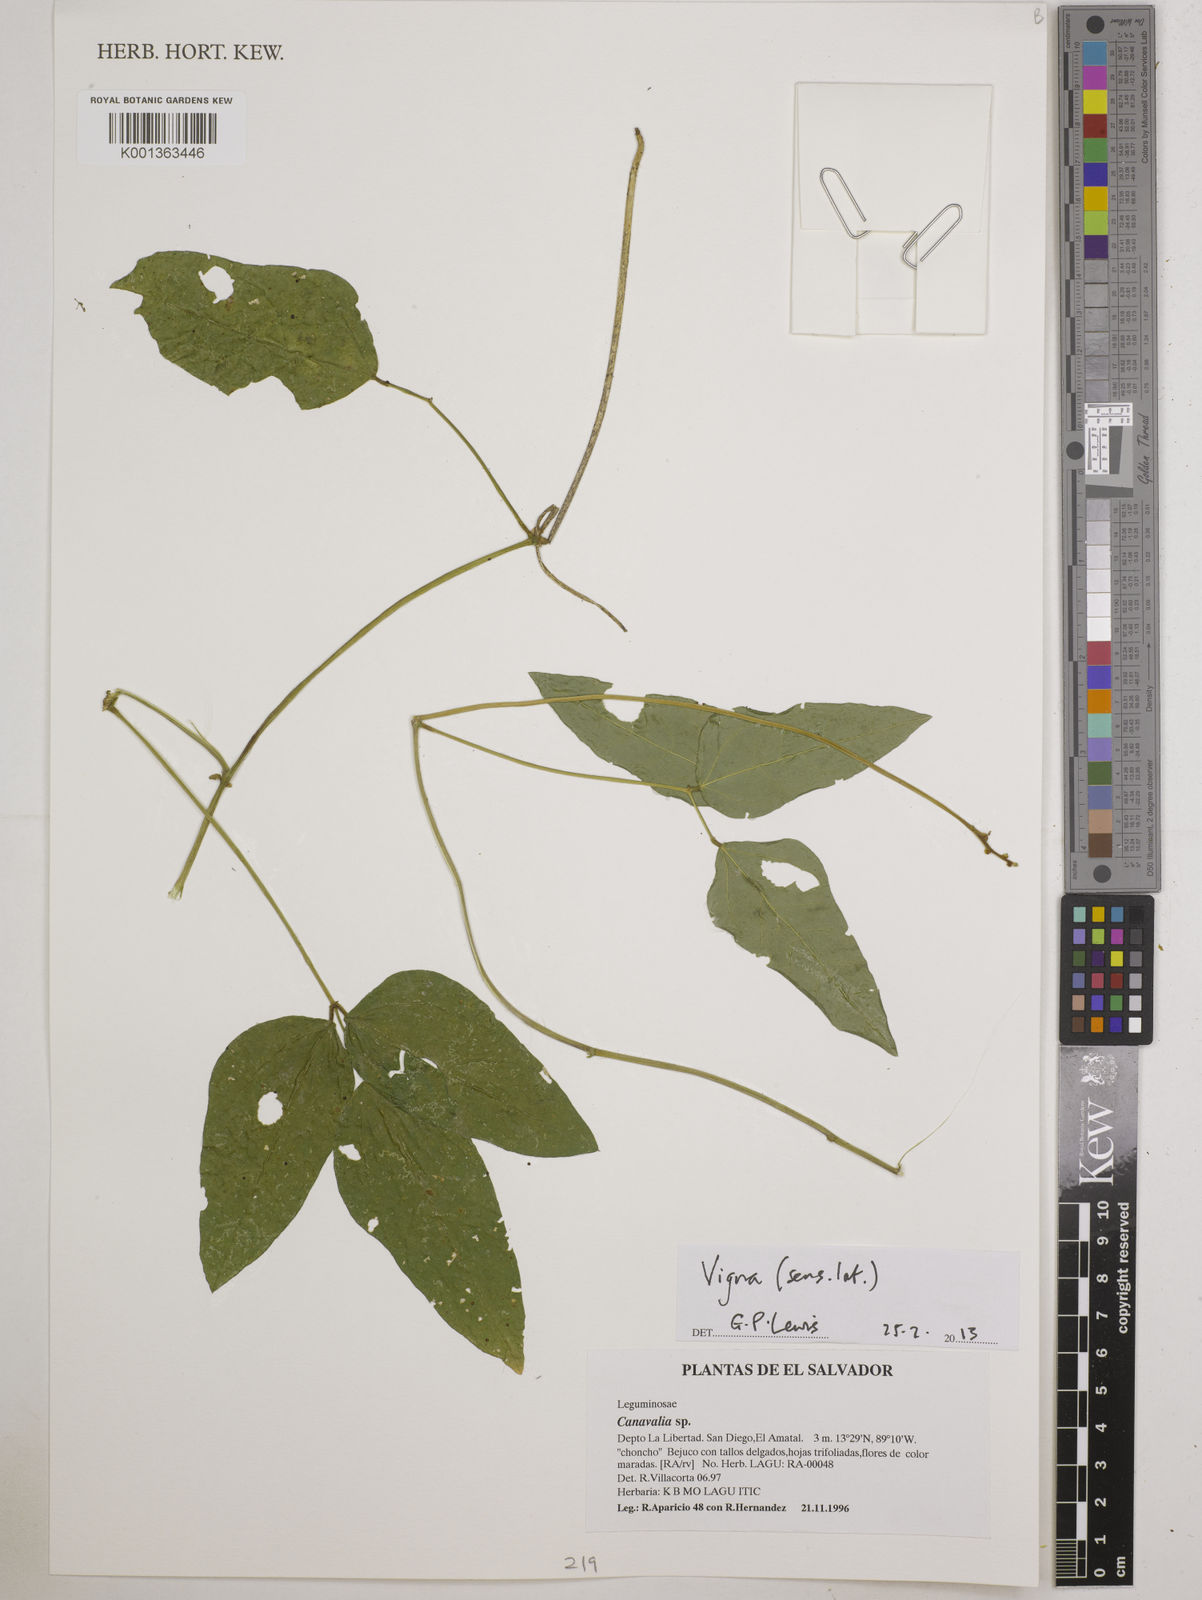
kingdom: Plantae
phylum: Tracheophyta
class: Magnoliopsida
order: Fabales
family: Fabaceae
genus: Vigna
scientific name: Vigna
